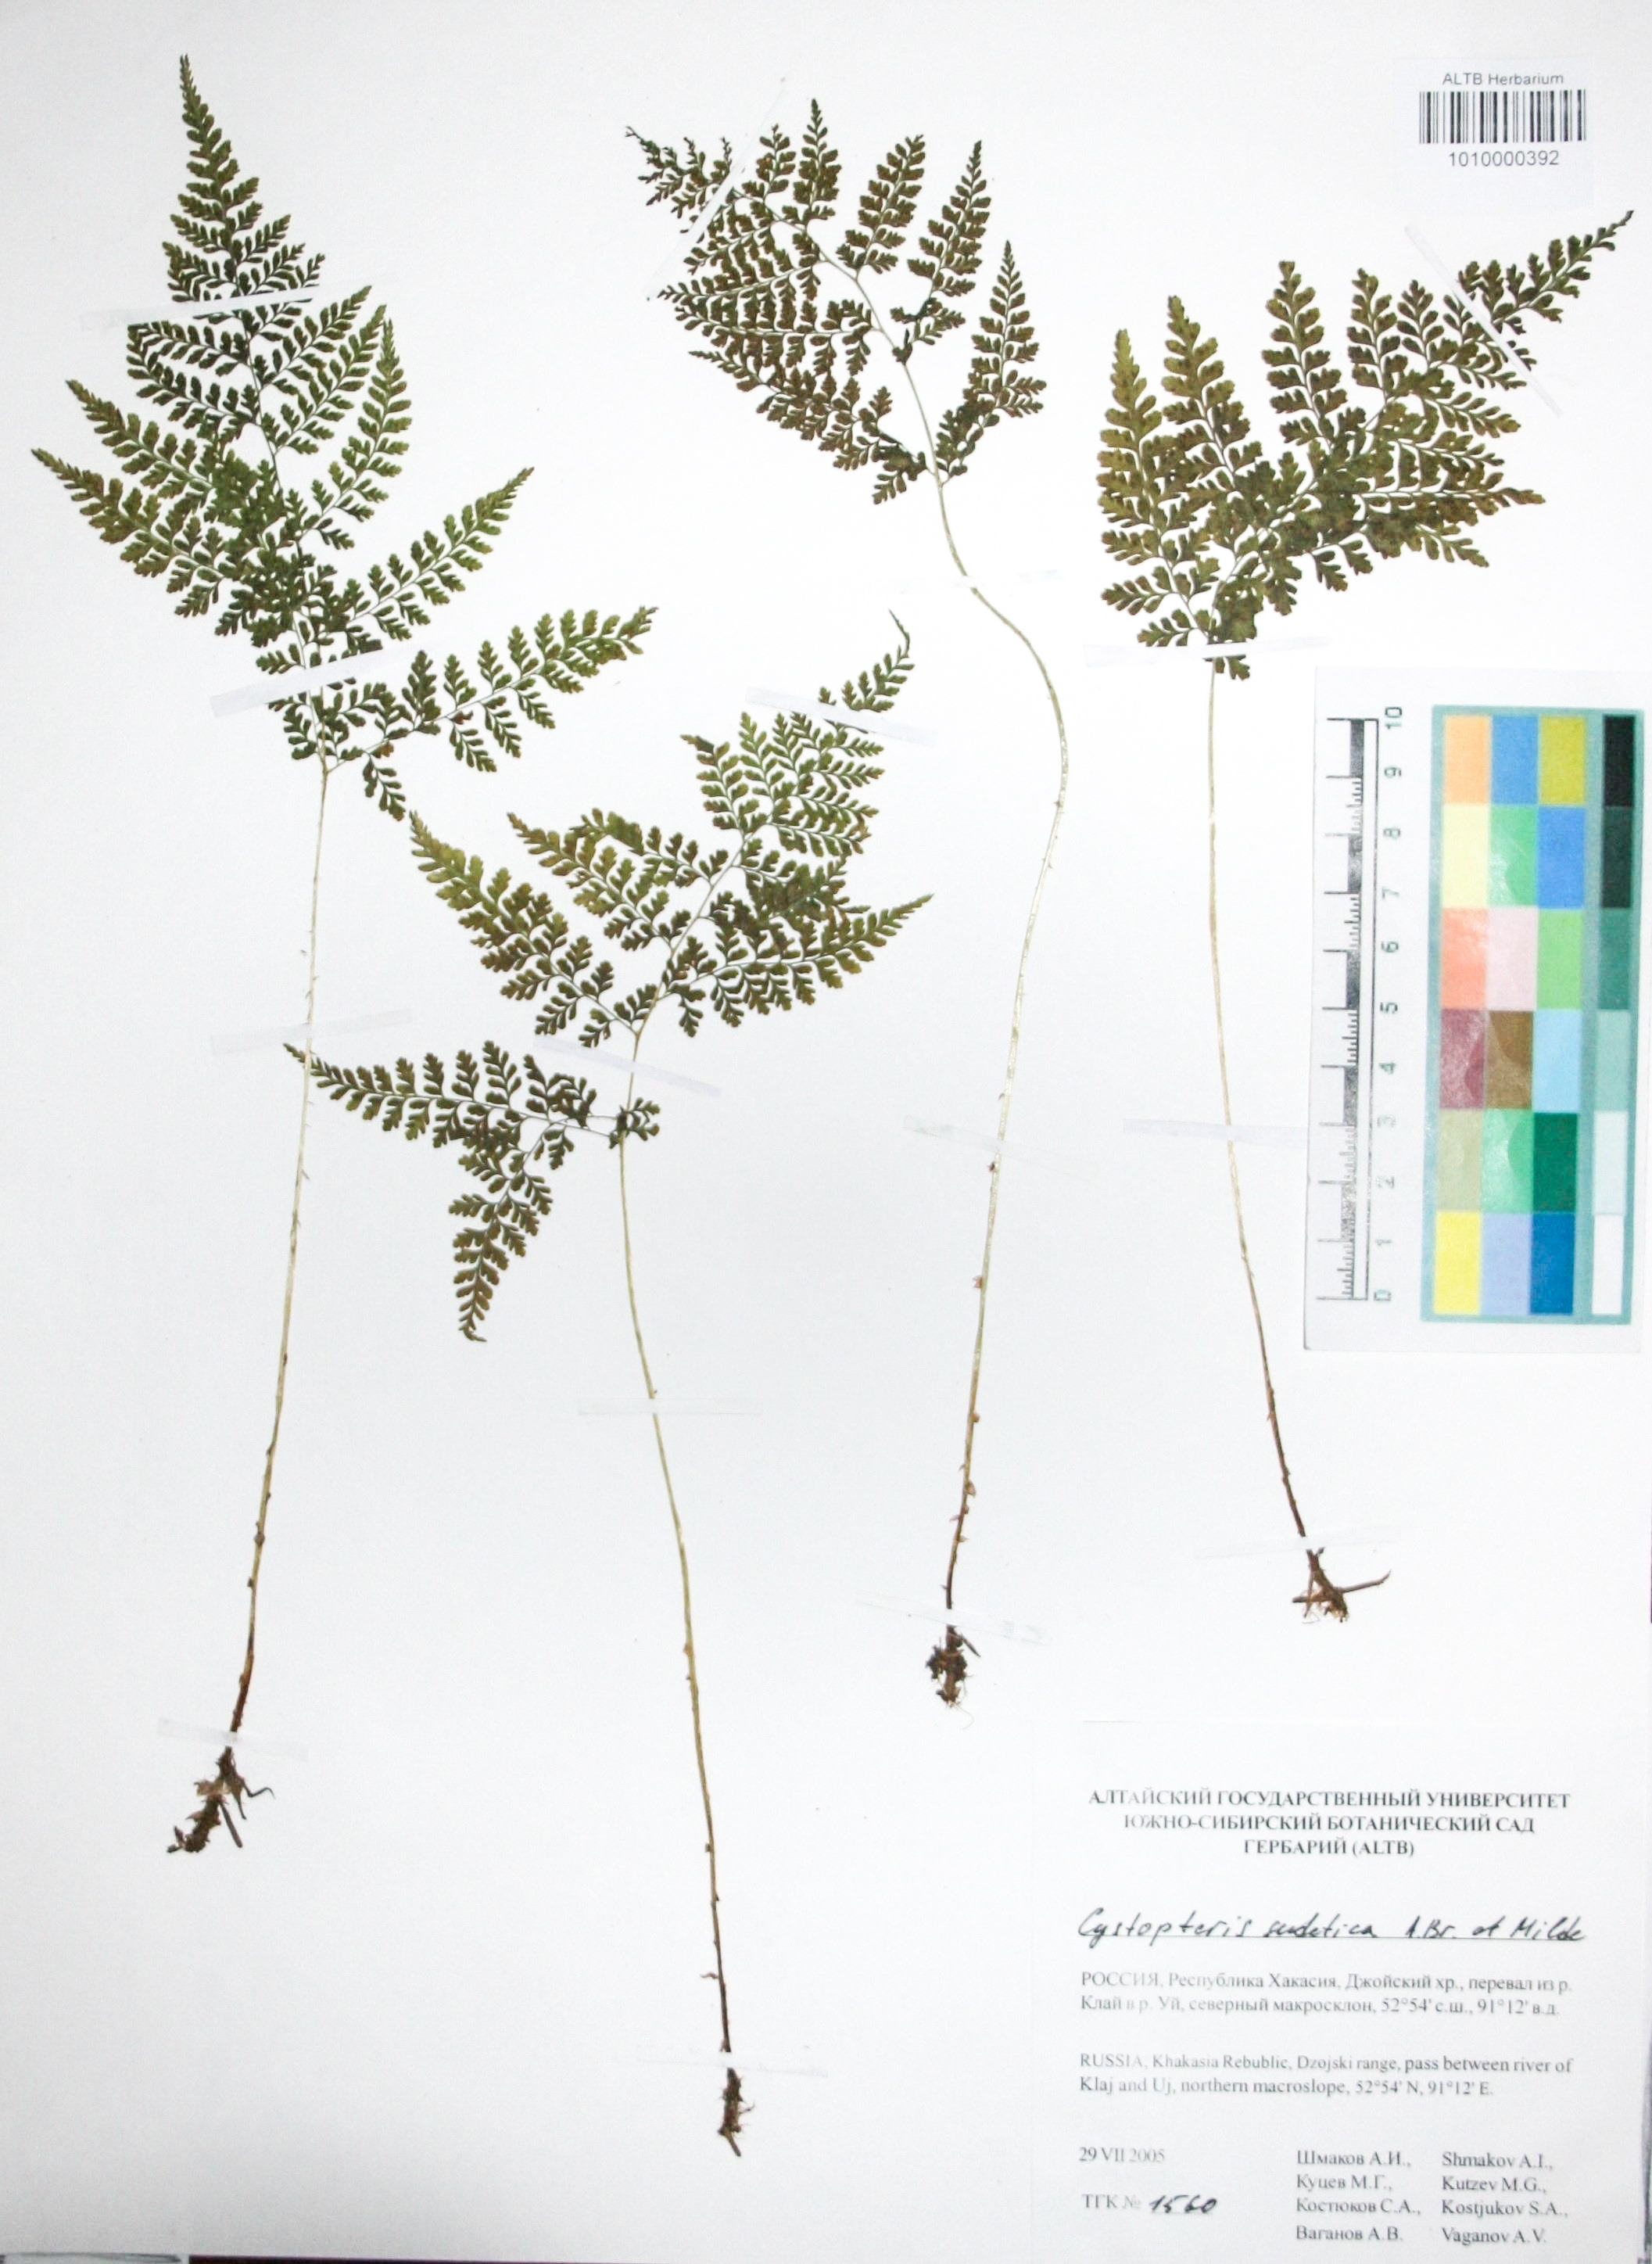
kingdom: Plantae
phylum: Tracheophyta
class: Polypodiopsida
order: Polypodiales
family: Cystopteridaceae
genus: Cystopteris
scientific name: Cystopteris sudetica
